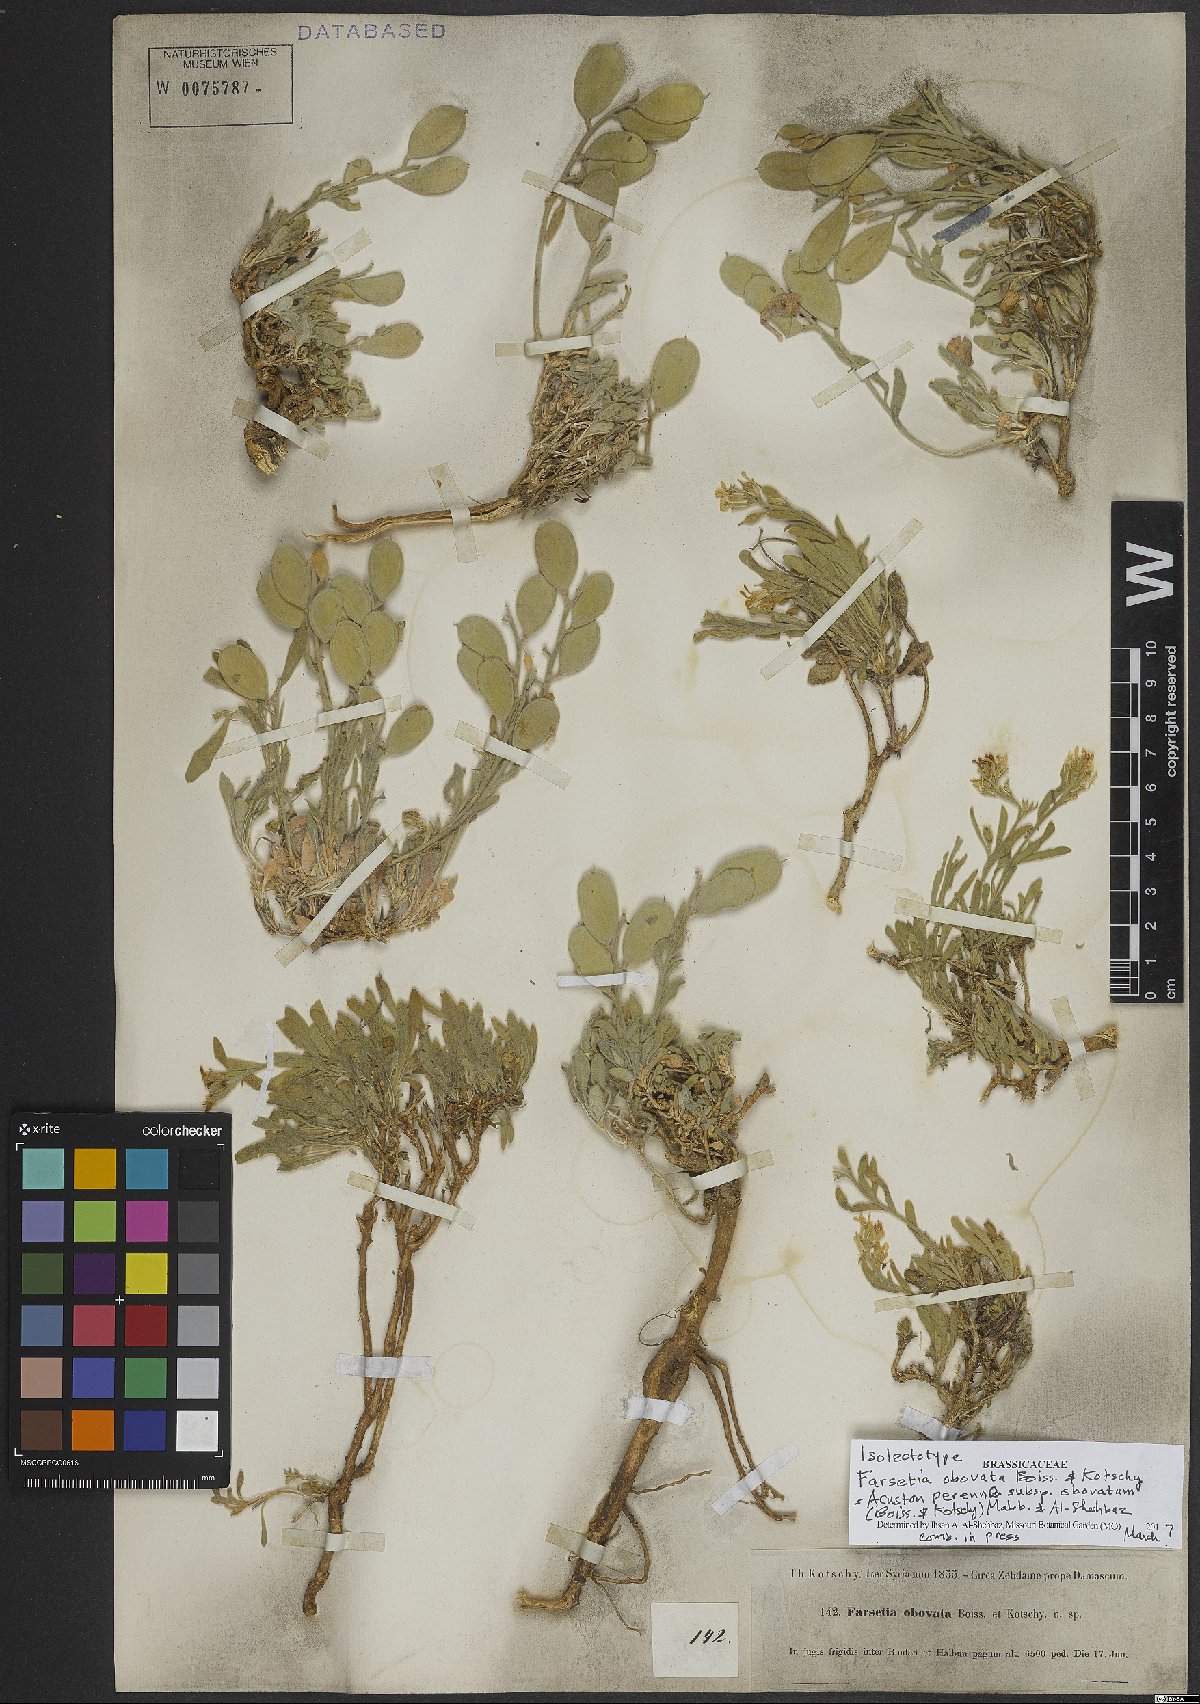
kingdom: Plantae
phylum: Tracheophyta
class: Magnoliopsida
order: Brassicales
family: Brassicaceae
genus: Acuston
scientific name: Acuston petalodes
